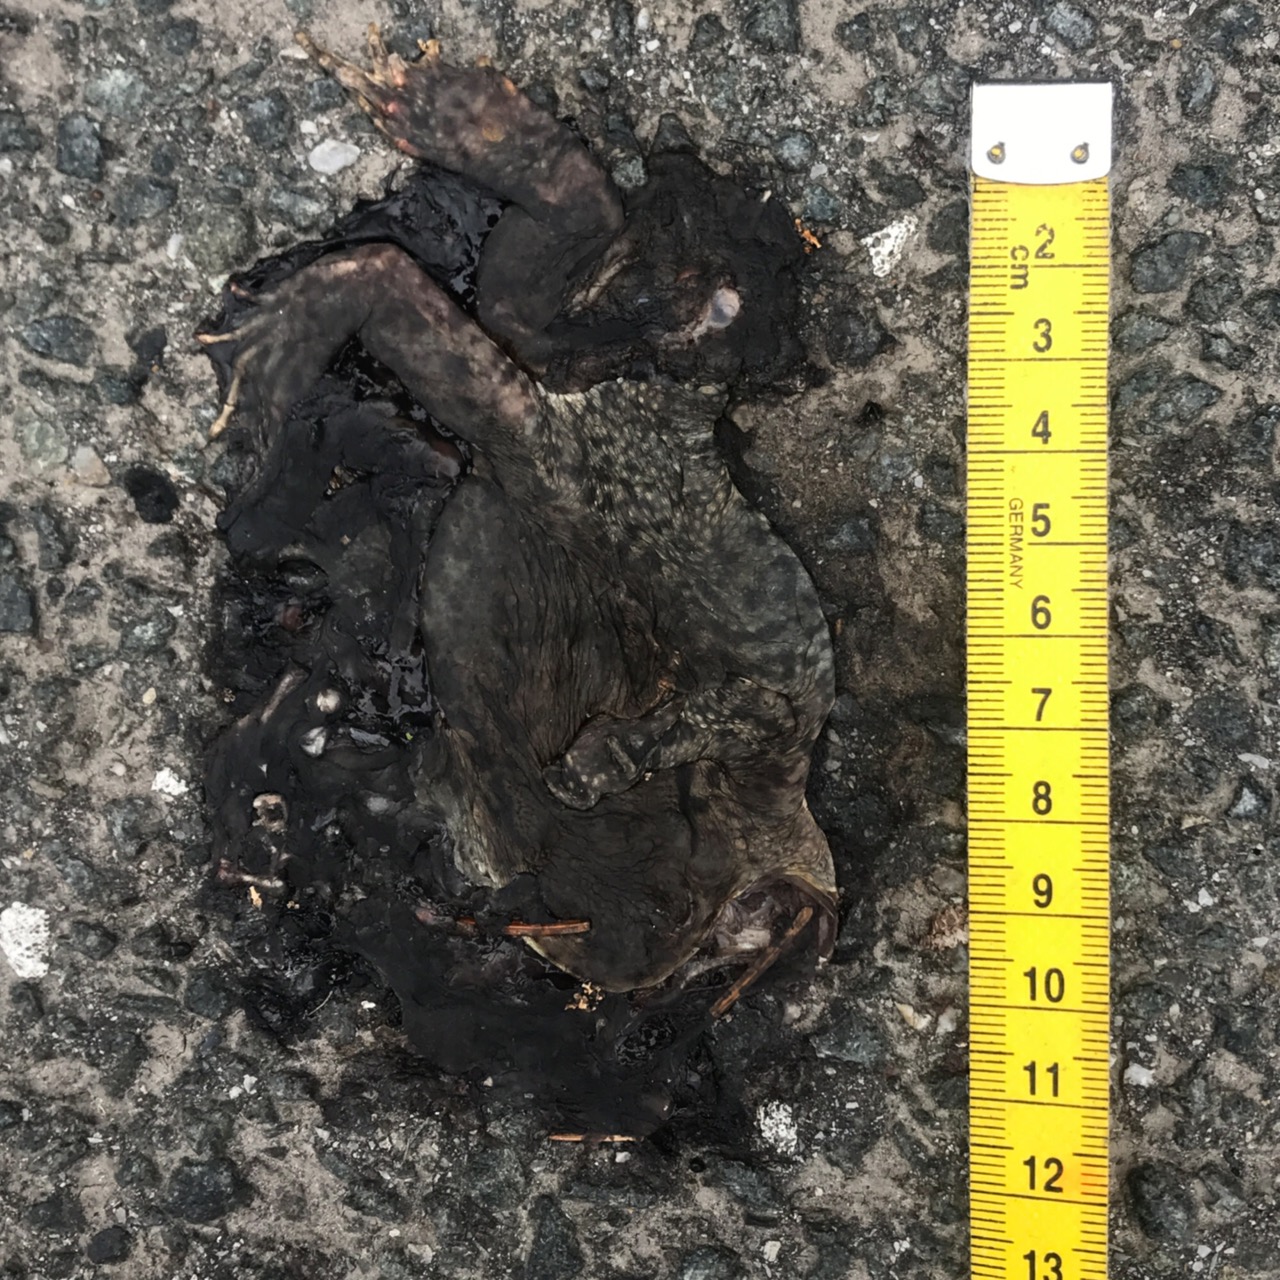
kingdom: Animalia
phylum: Chordata
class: Amphibia
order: Anura
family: Bufonidae
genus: Bufo
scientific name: Bufo bufo
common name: Common toad
